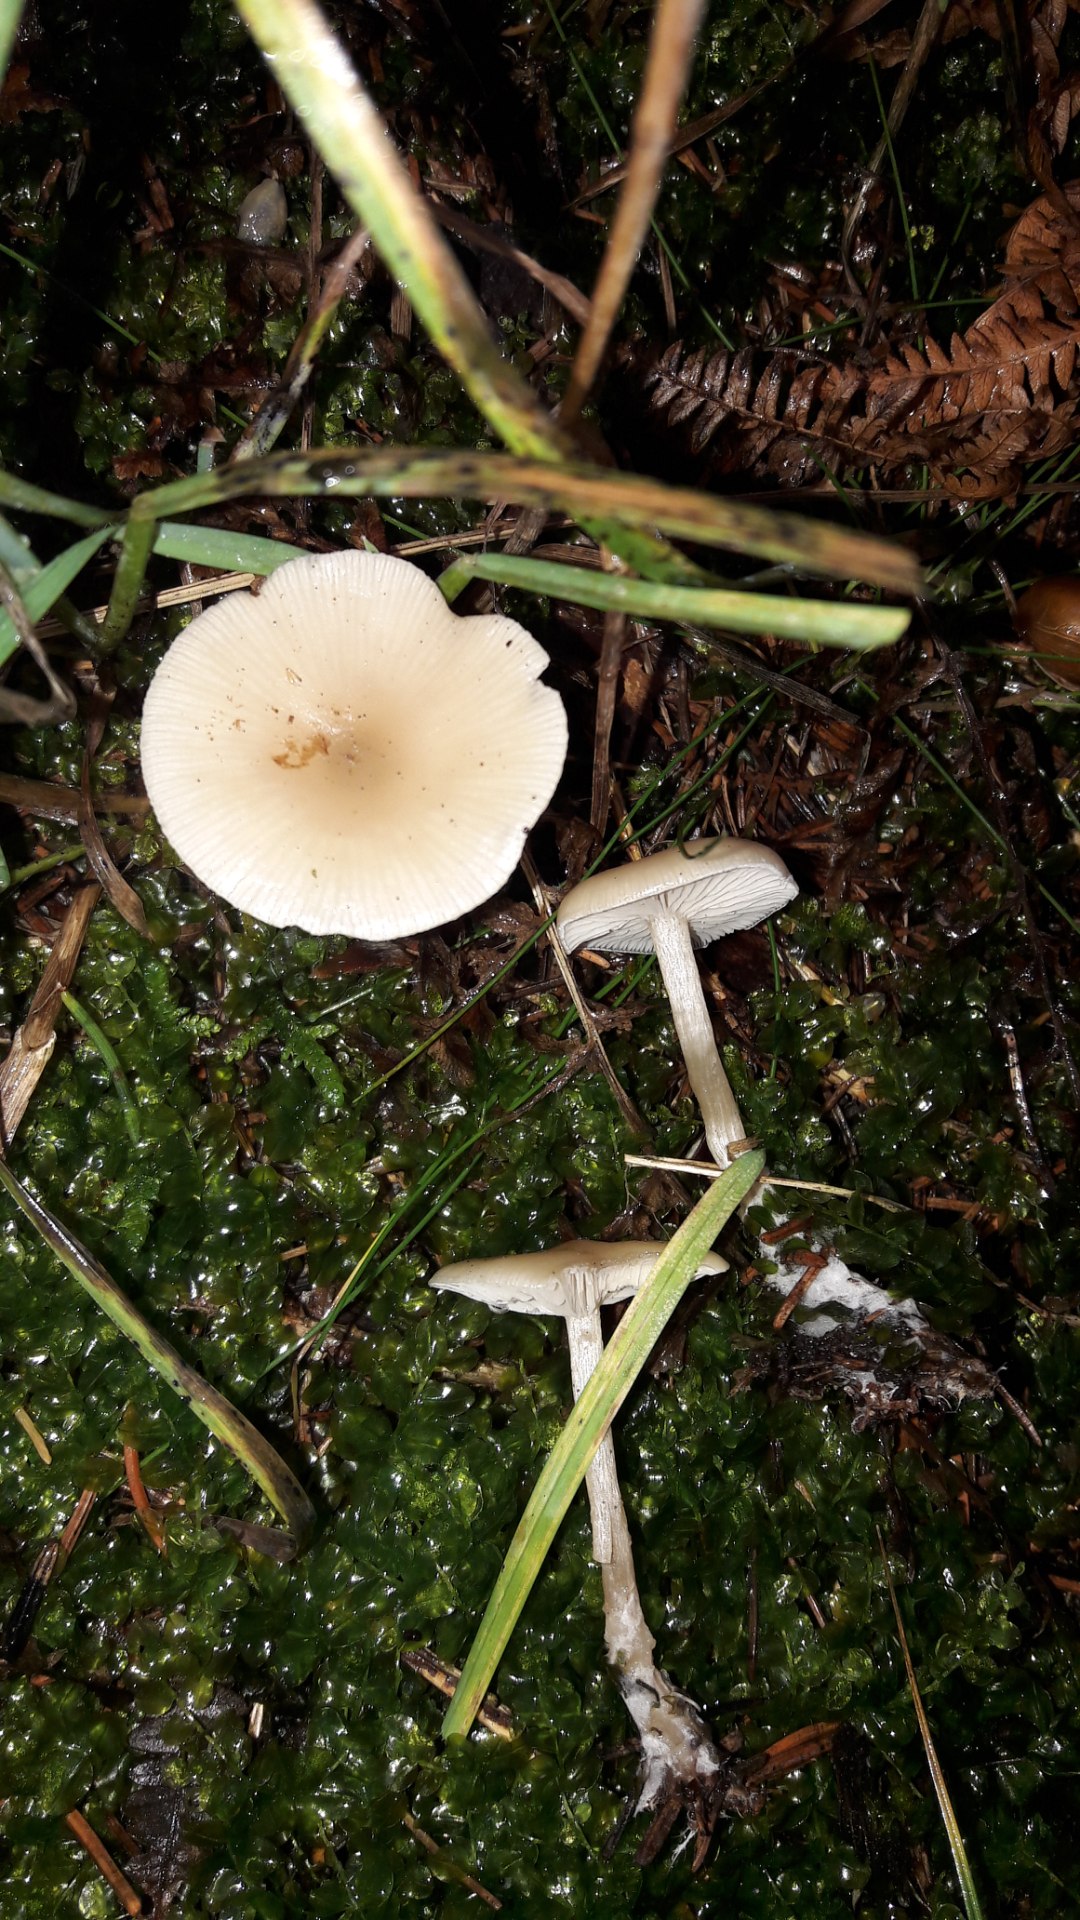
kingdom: Fungi
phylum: Basidiomycota
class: Agaricomycetes
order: Agaricales
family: Tricholomataceae
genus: Clitocybe
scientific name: Clitocybe fragrans
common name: vellugtende tragthat
